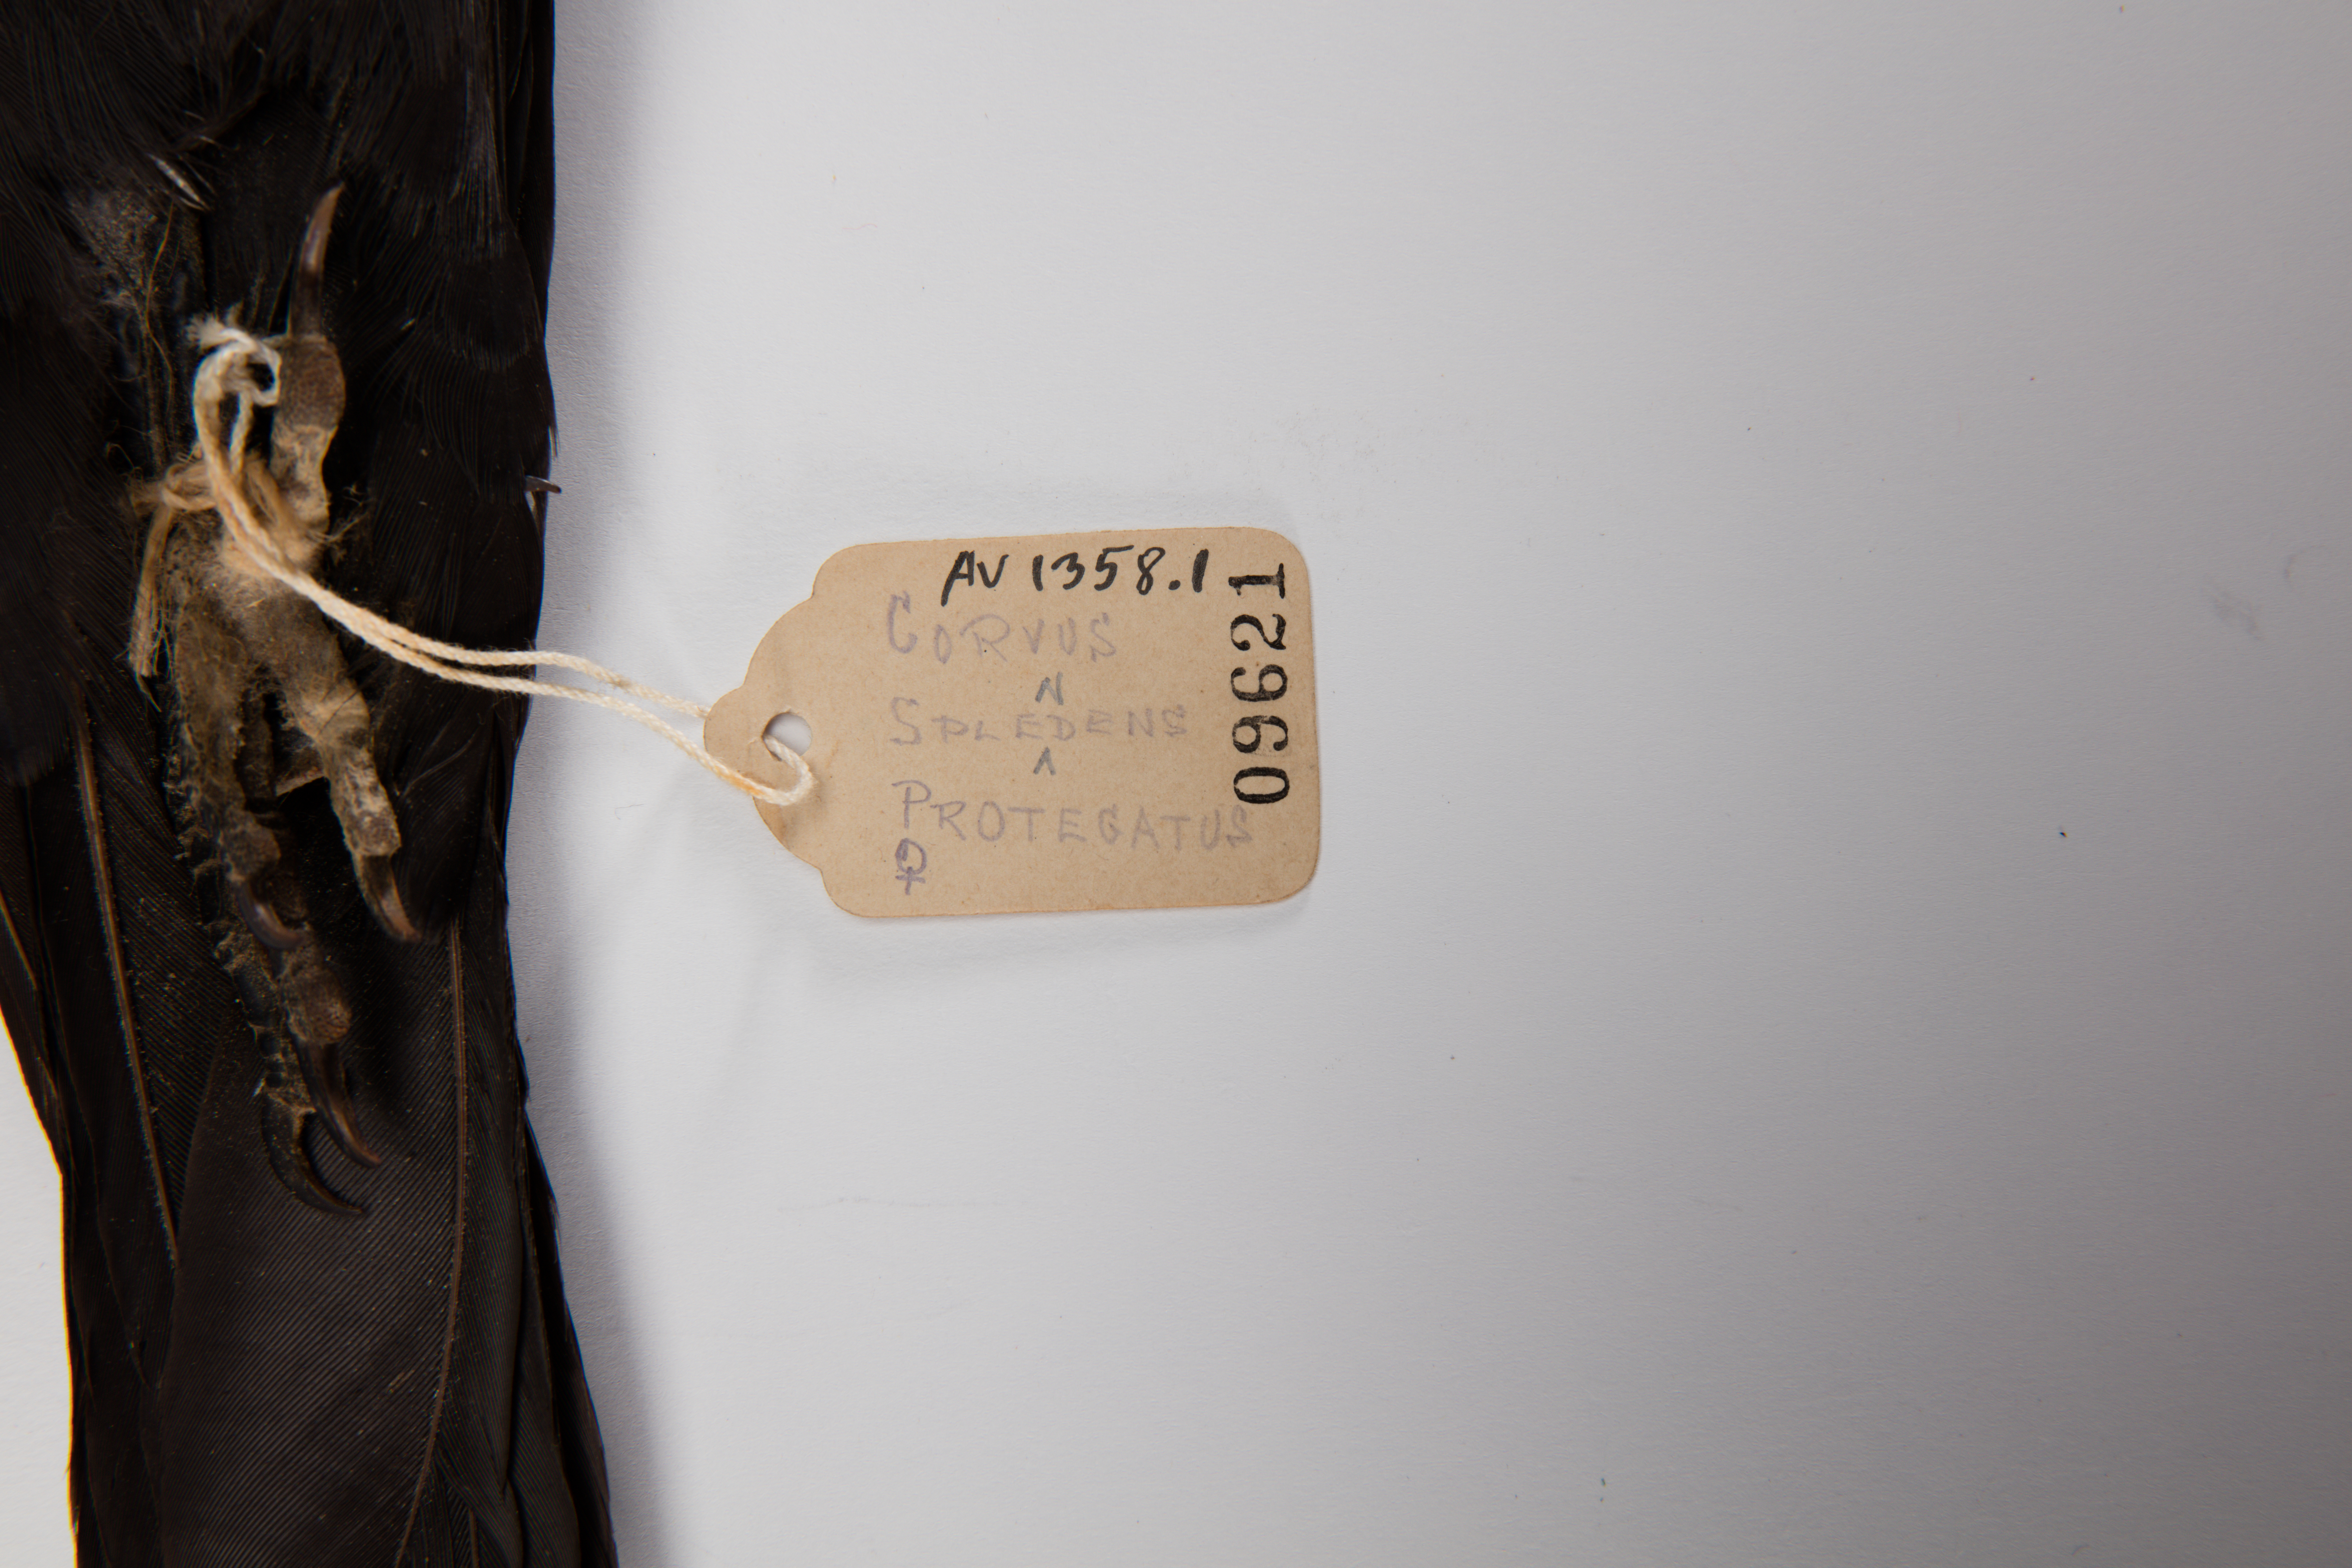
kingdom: Animalia
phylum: Chordata
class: Aves
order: Passeriformes
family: Corvidae
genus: Corvus
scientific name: Corvus splendens
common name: House crow
